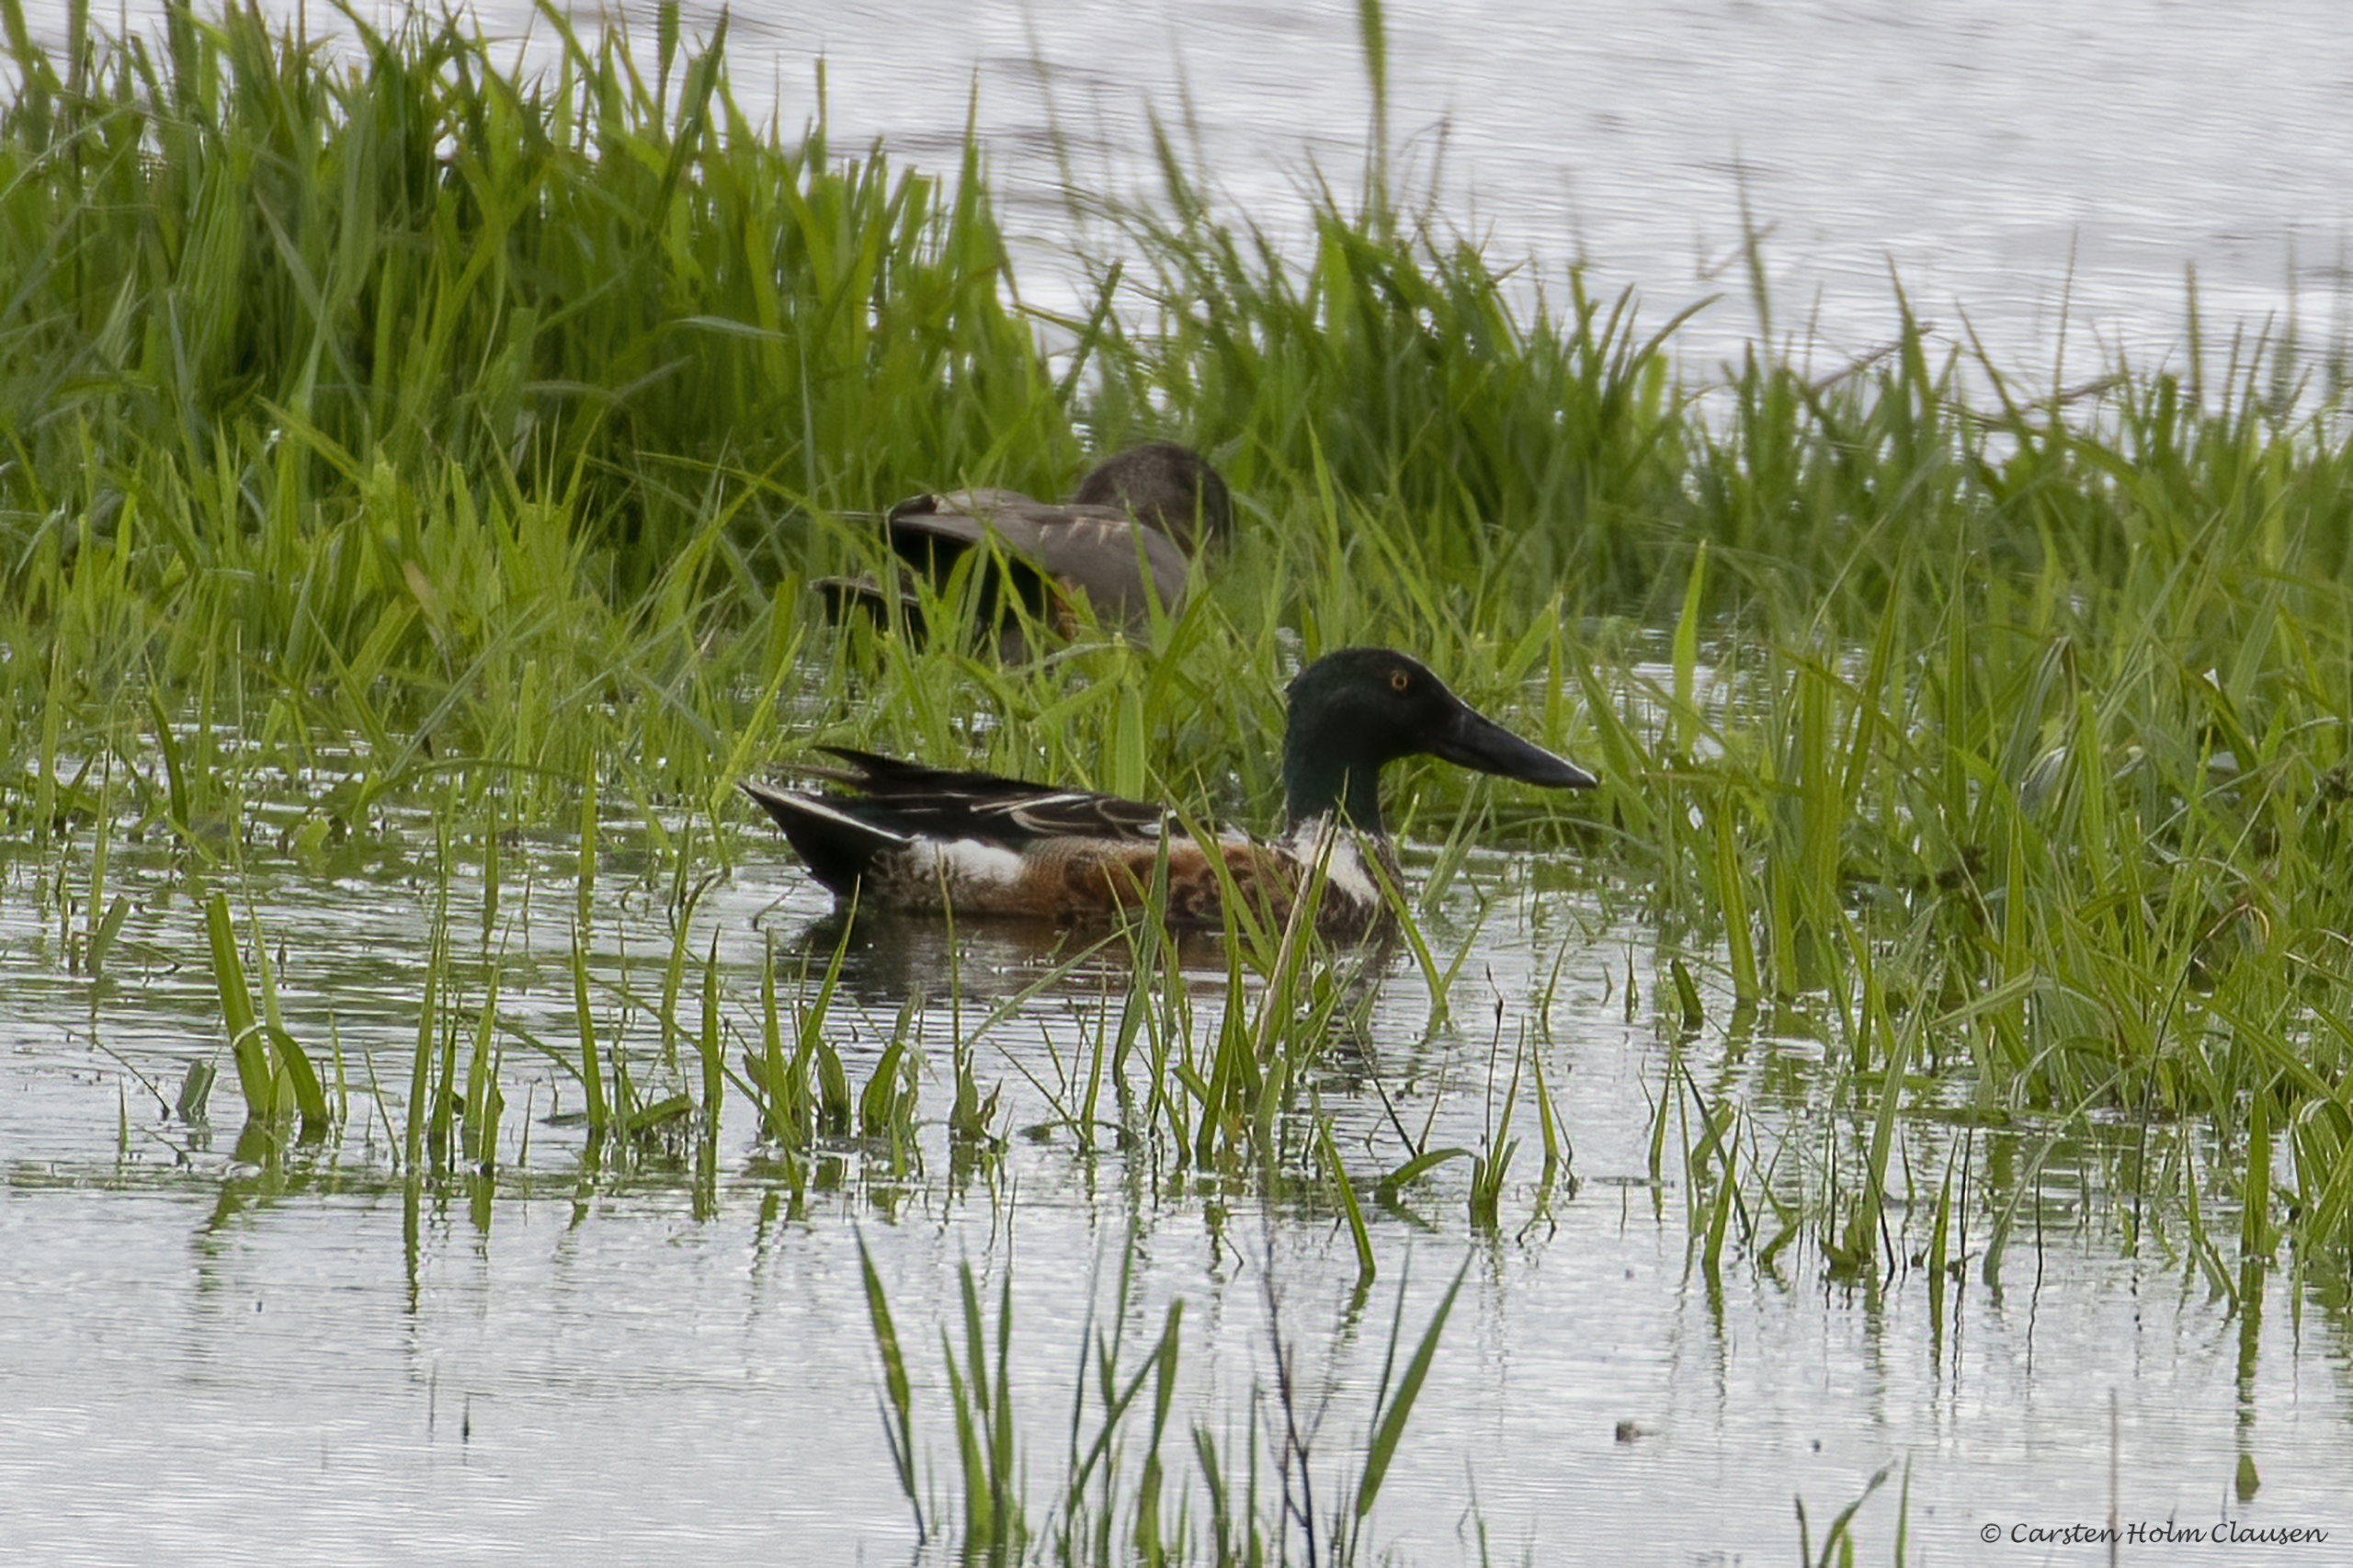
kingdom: Animalia
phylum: Chordata
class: Aves
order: Anseriformes
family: Anatidae
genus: Spatula
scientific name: Spatula clypeata
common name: Skeand
